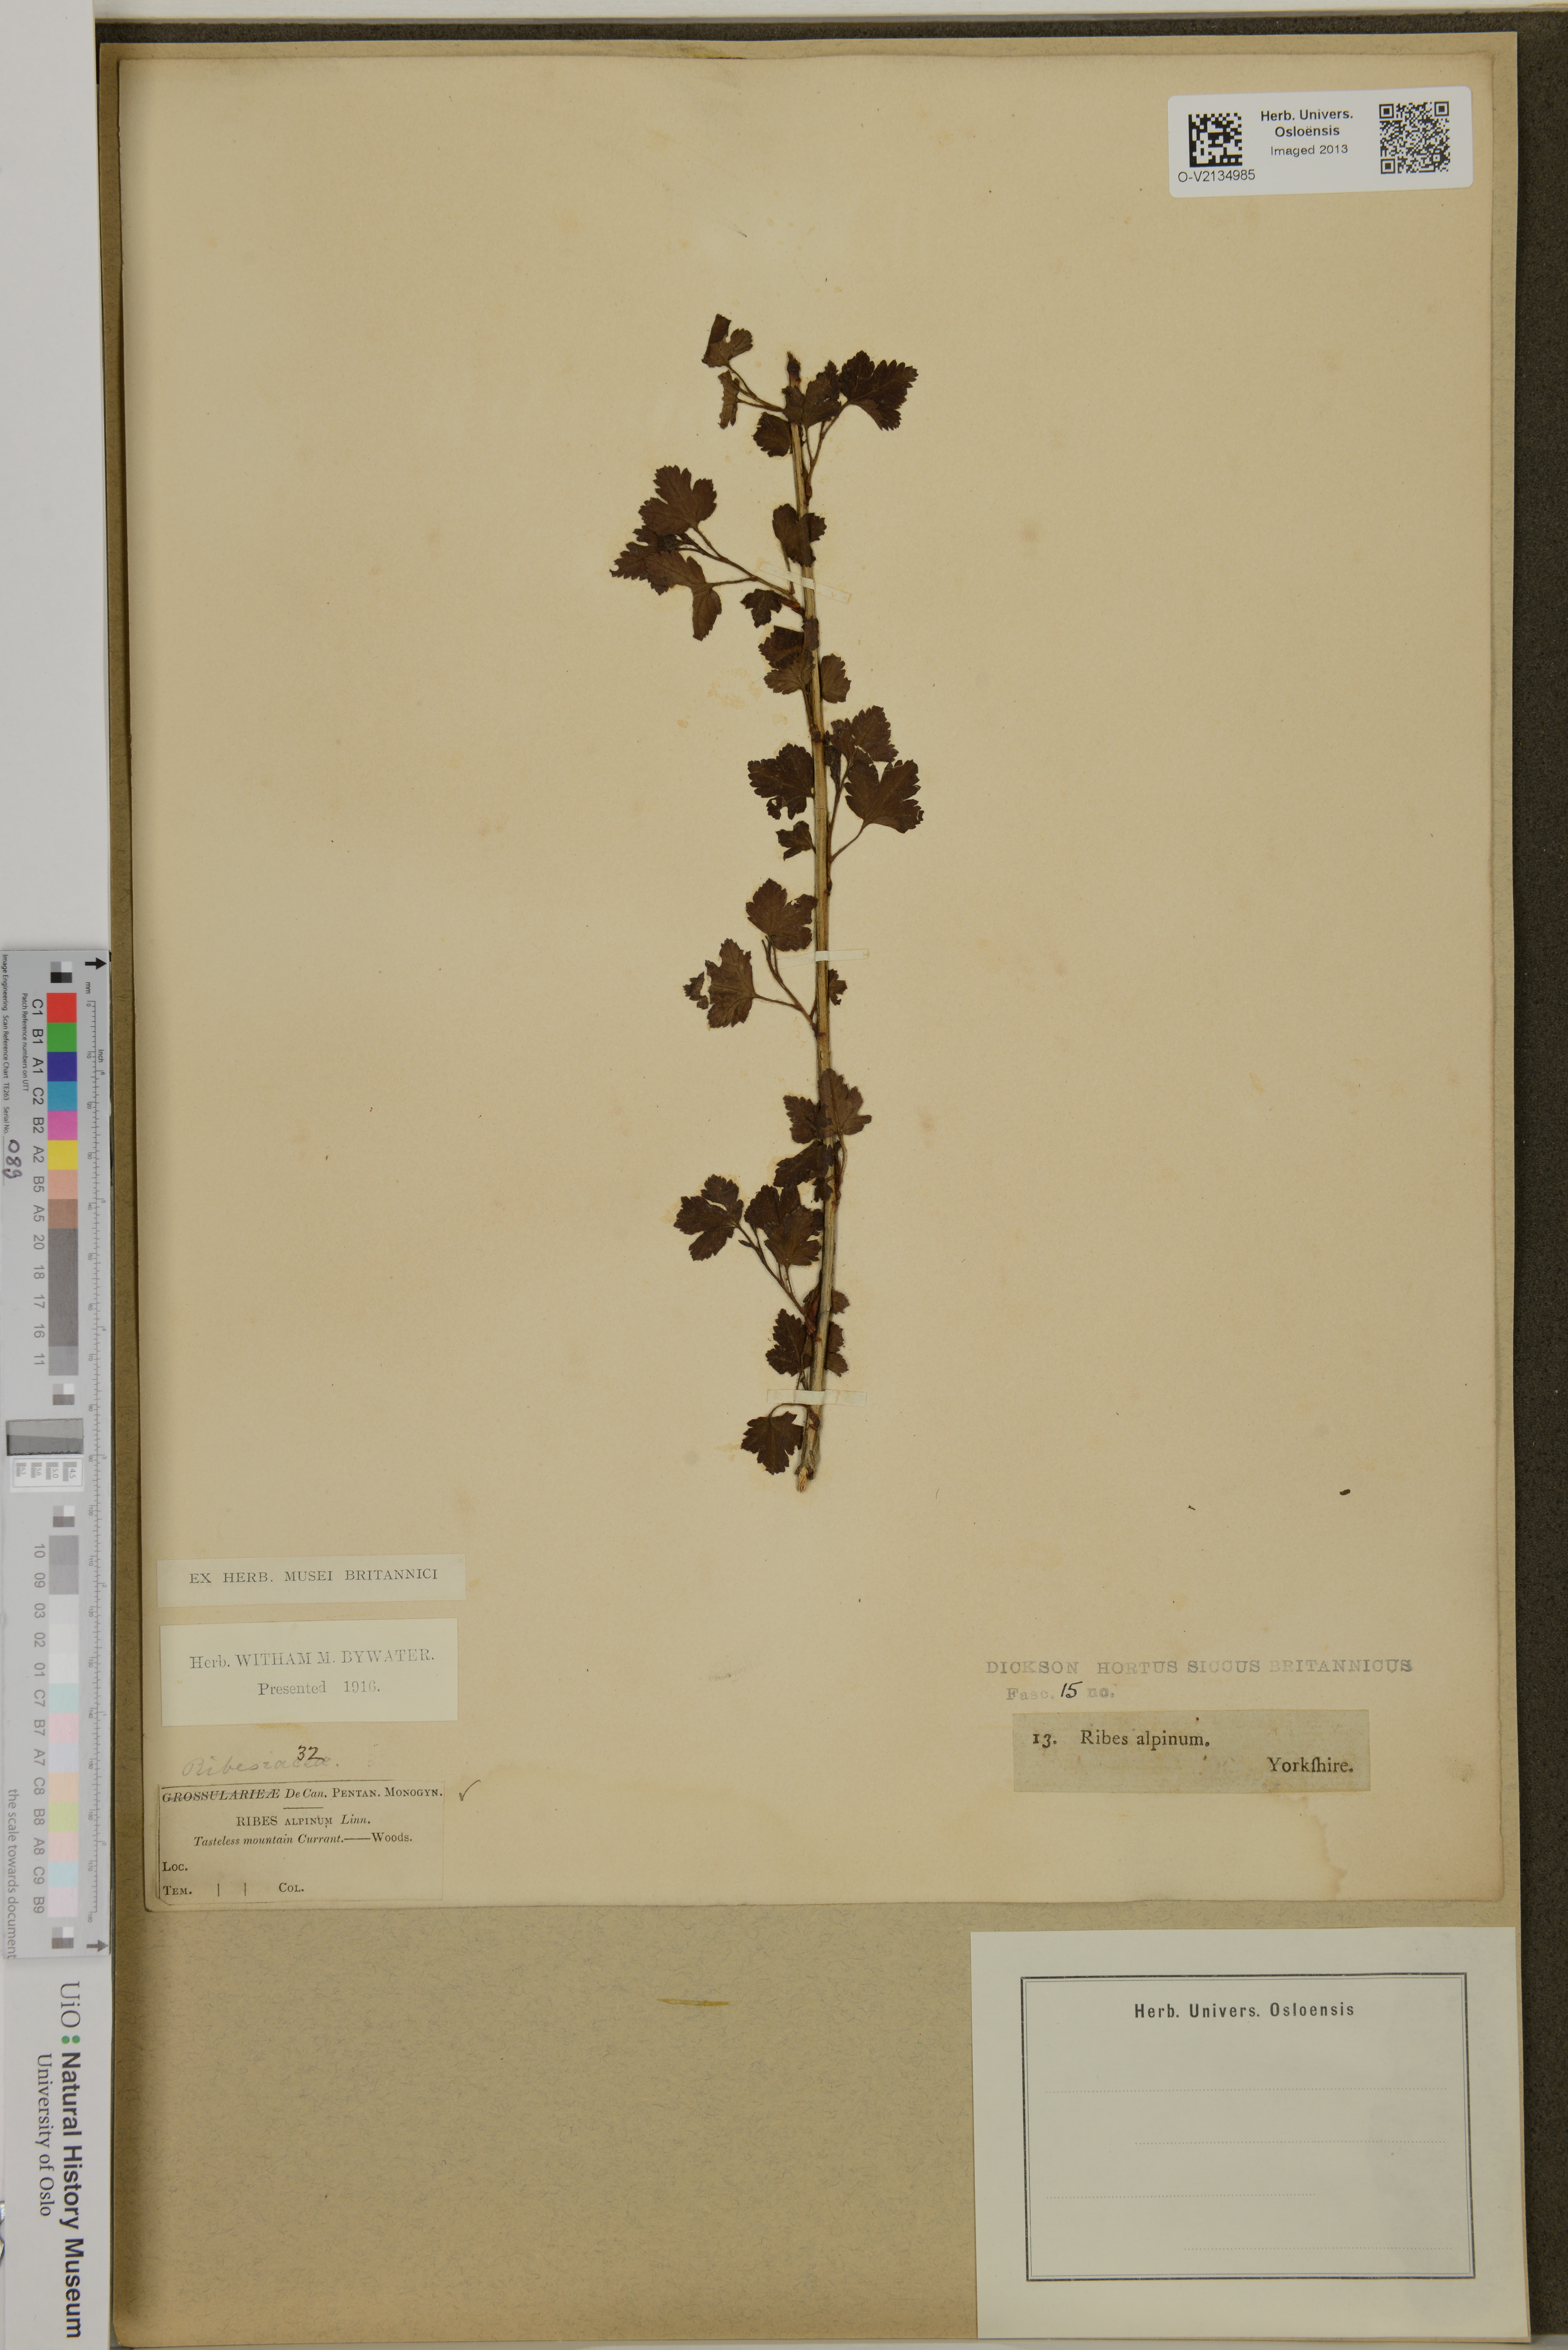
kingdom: Plantae
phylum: Tracheophyta
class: Magnoliopsida
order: Saxifragales
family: Grossulariaceae
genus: Ribes
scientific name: Ribes alpinum
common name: Alpine currant
